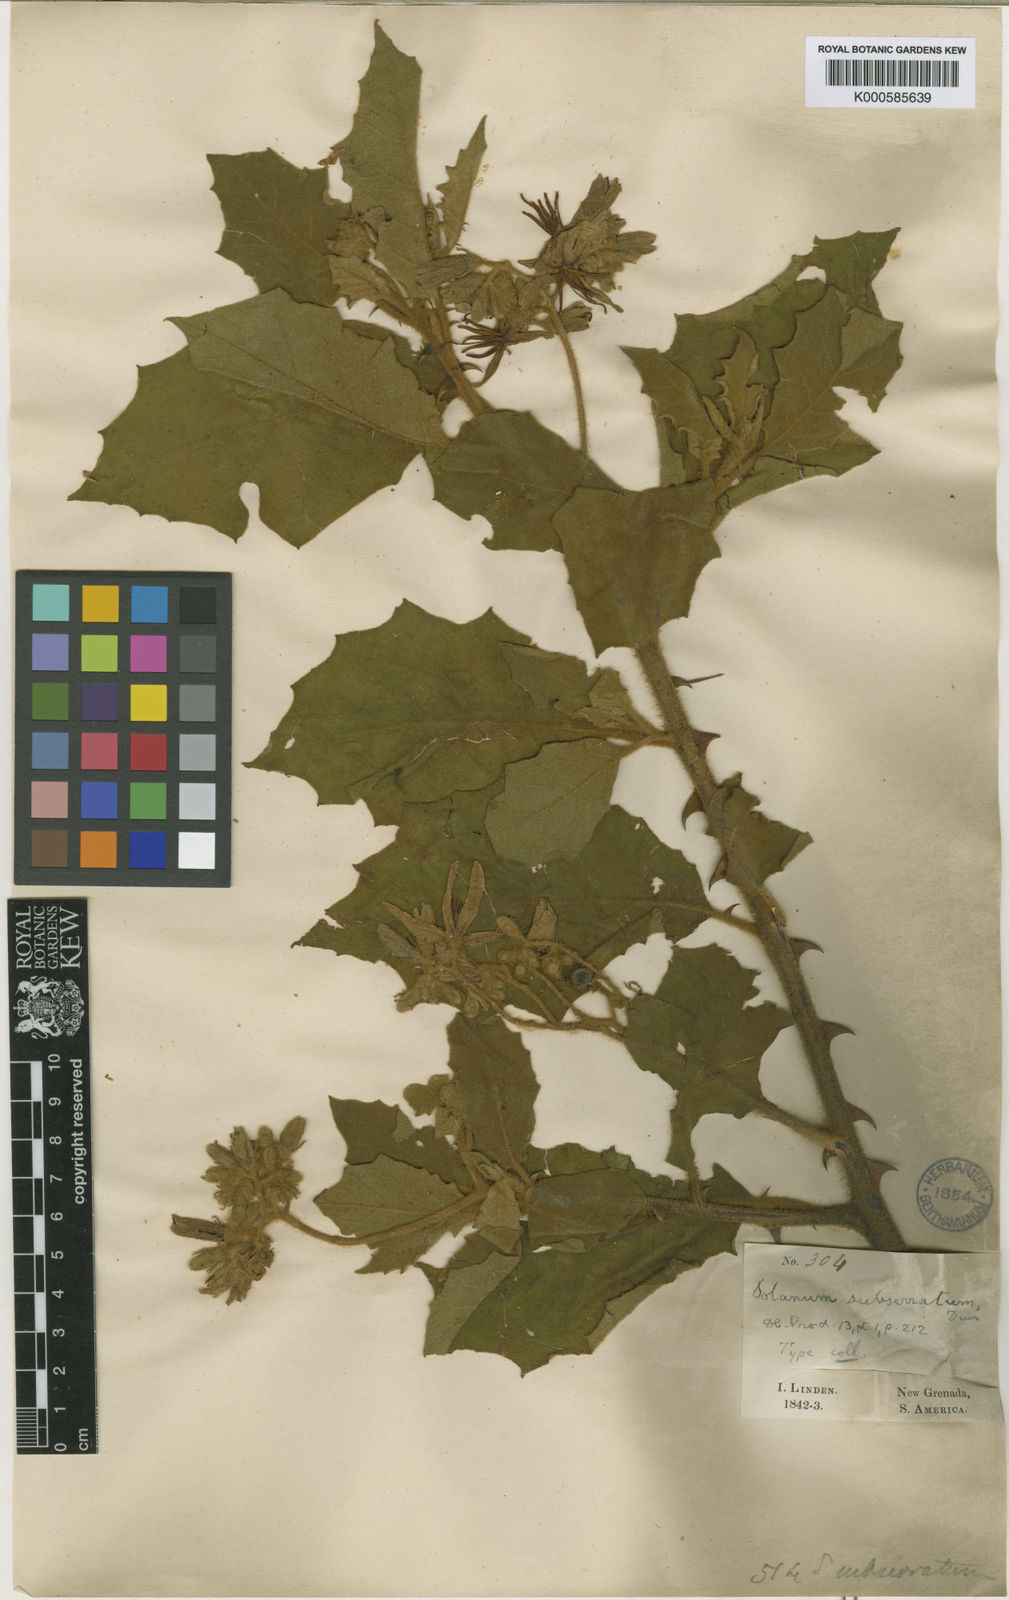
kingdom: Plantae
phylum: Tracheophyta
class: Magnoliopsida
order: Solanales
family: Solanaceae
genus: Solanum
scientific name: Solanum subserratum
